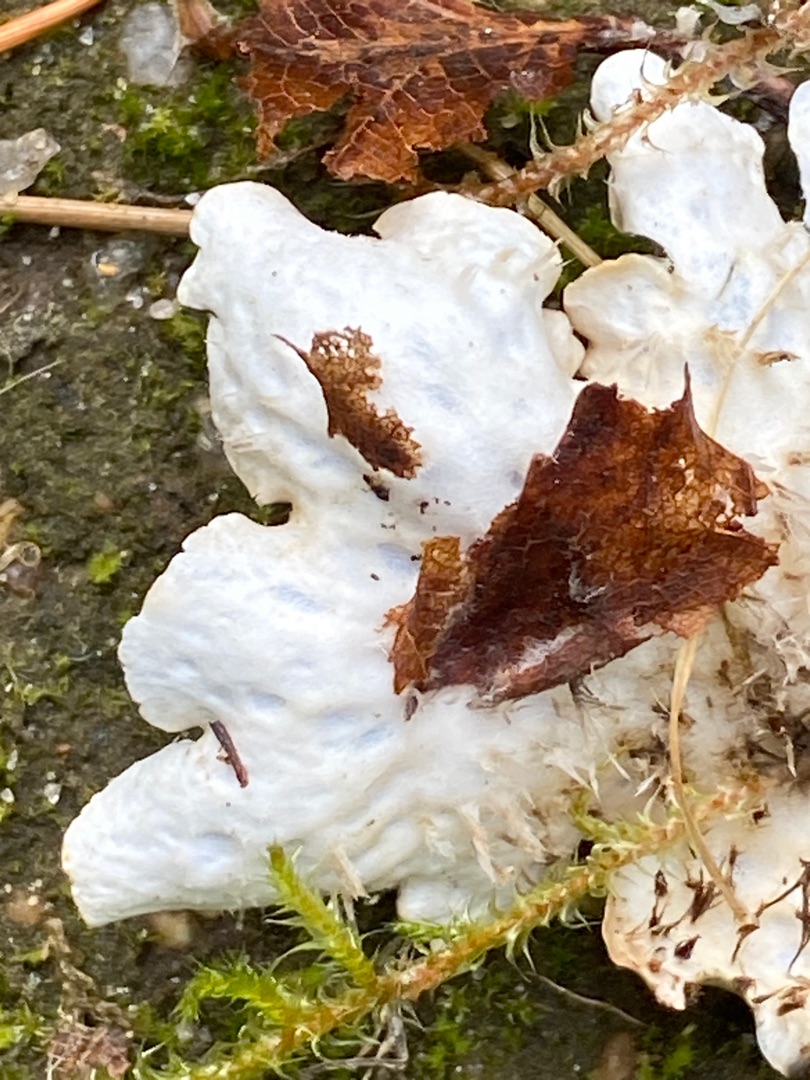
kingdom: Fungi
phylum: Ascomycota
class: Lecanoromycetes
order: Peltigerales
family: Peltigeraceae
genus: Peltigera
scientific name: Peltigera hymenina
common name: Hinde-skjoldlav
